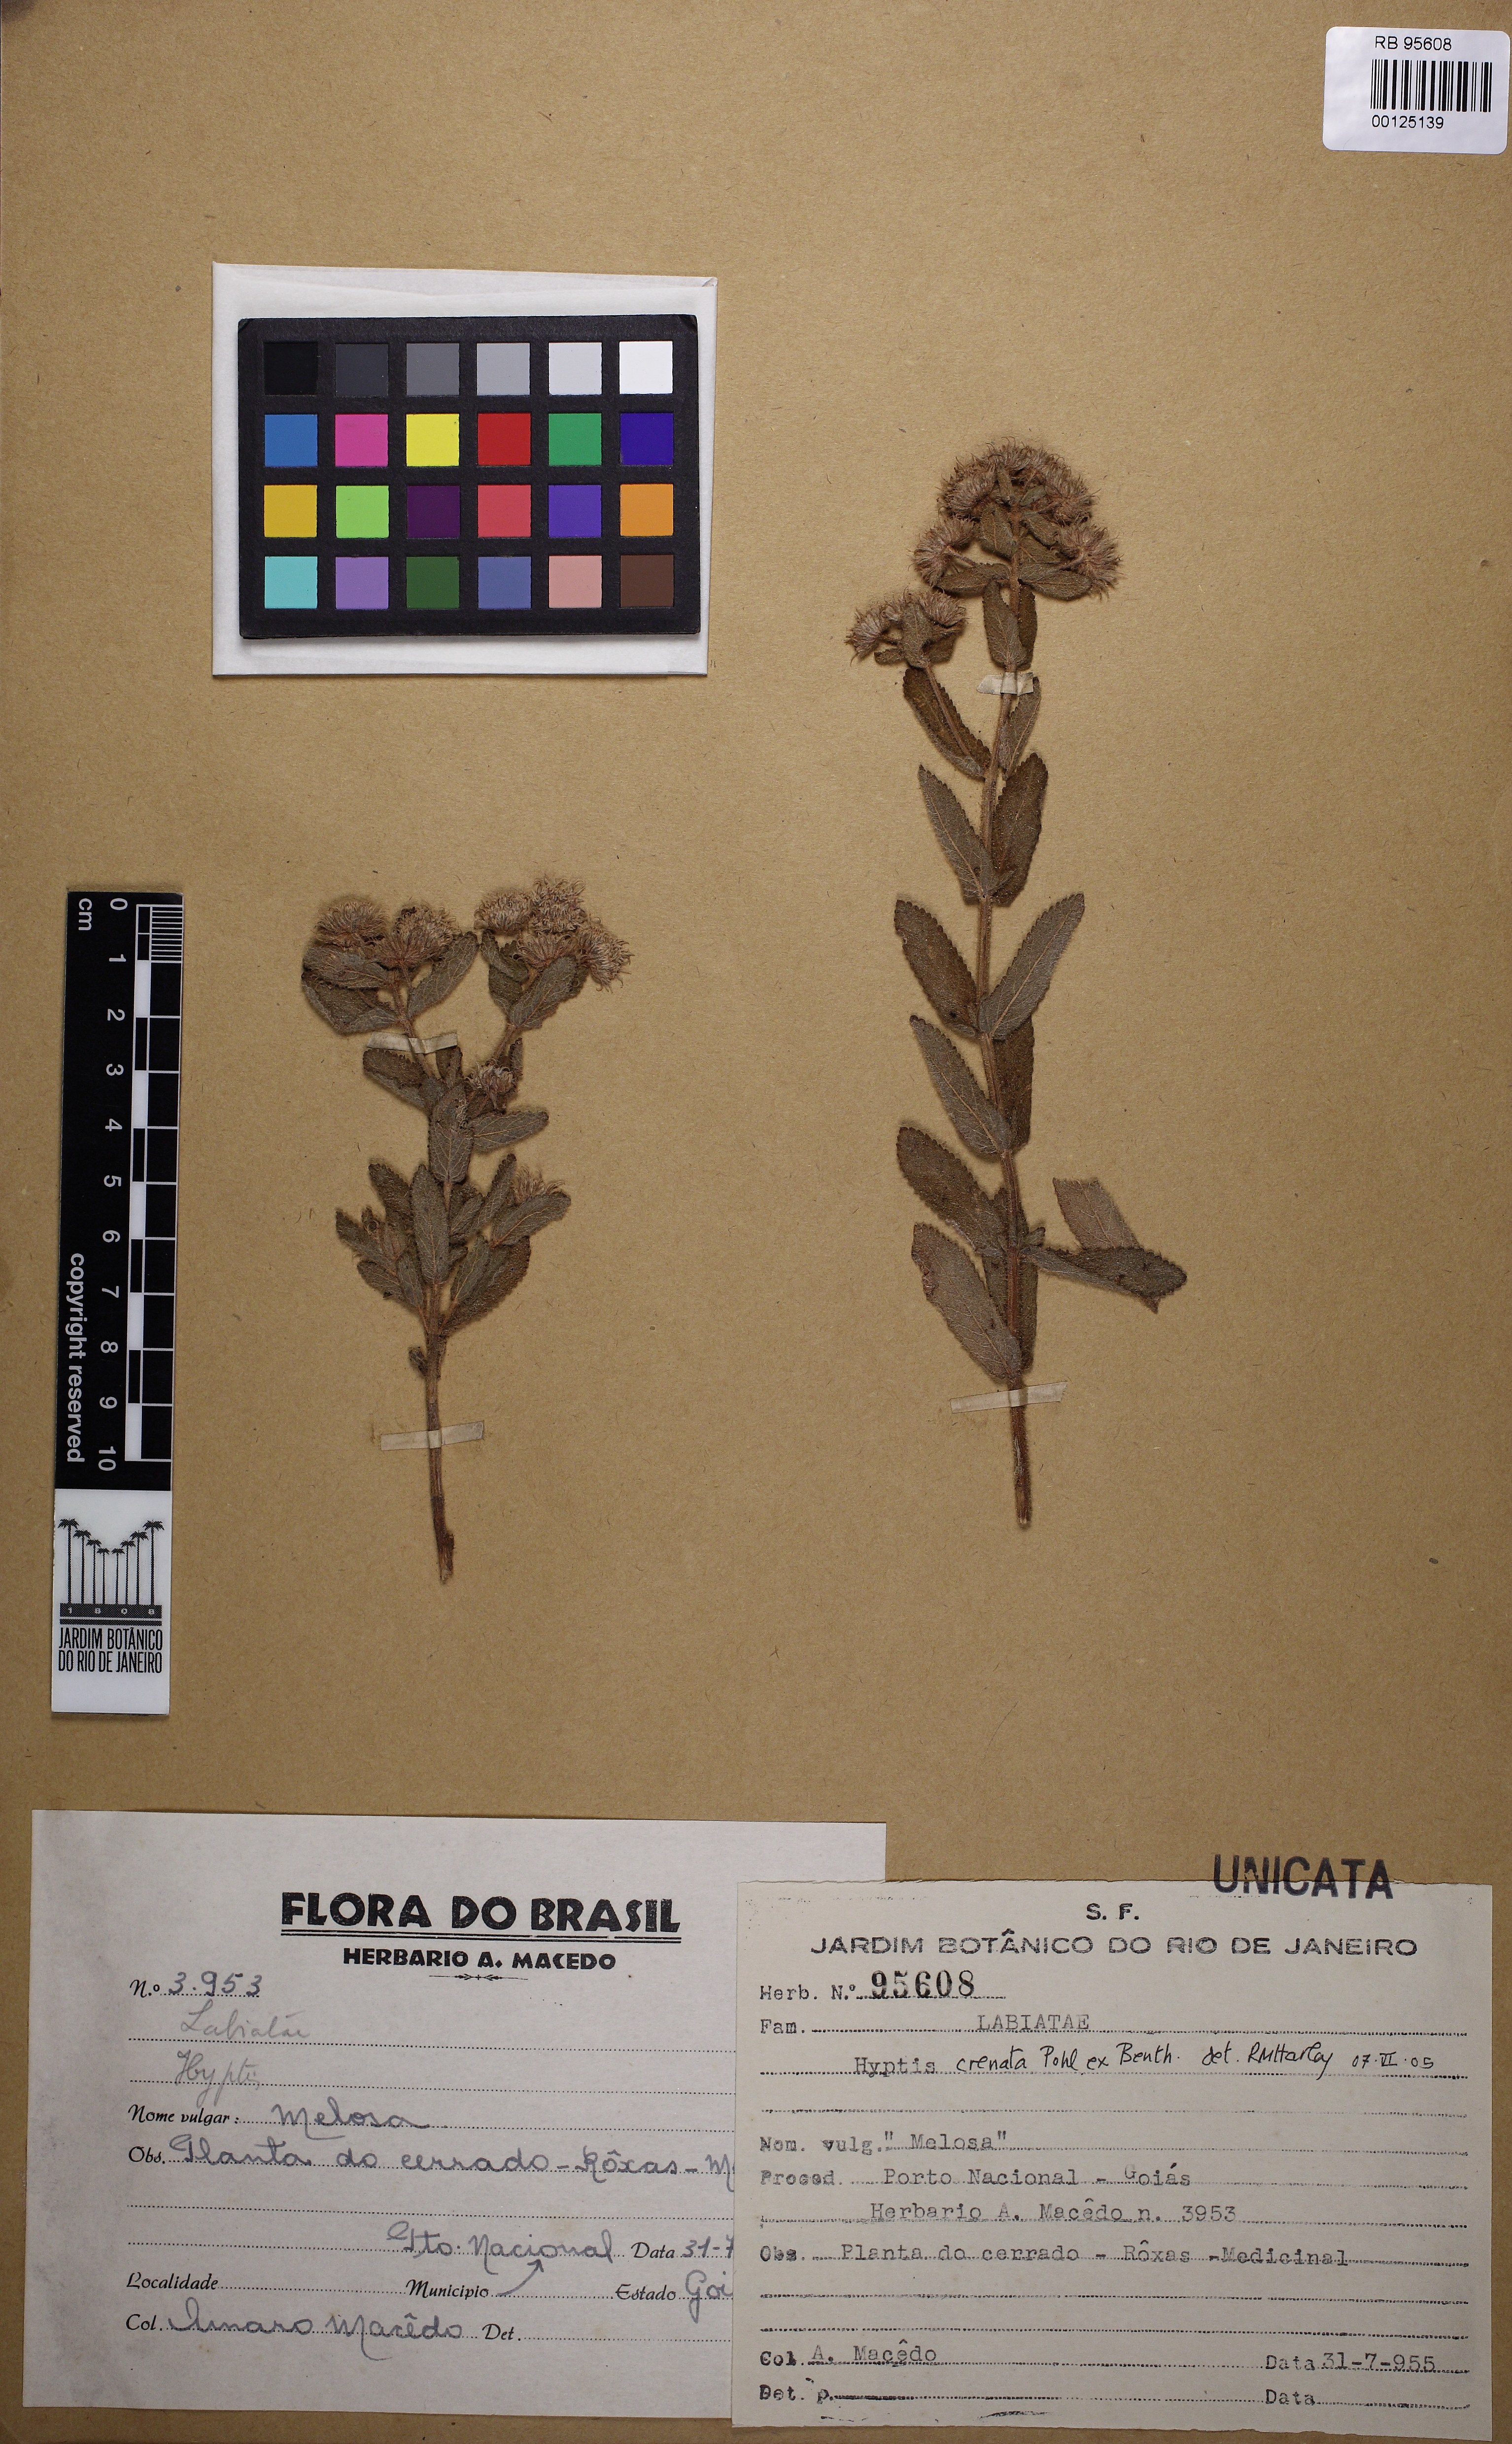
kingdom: Plantae
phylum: Tracheophyta
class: Magnoliopsida
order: Lamiales
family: Lamiaceae
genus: Hyptis
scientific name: Hyptis crenata
